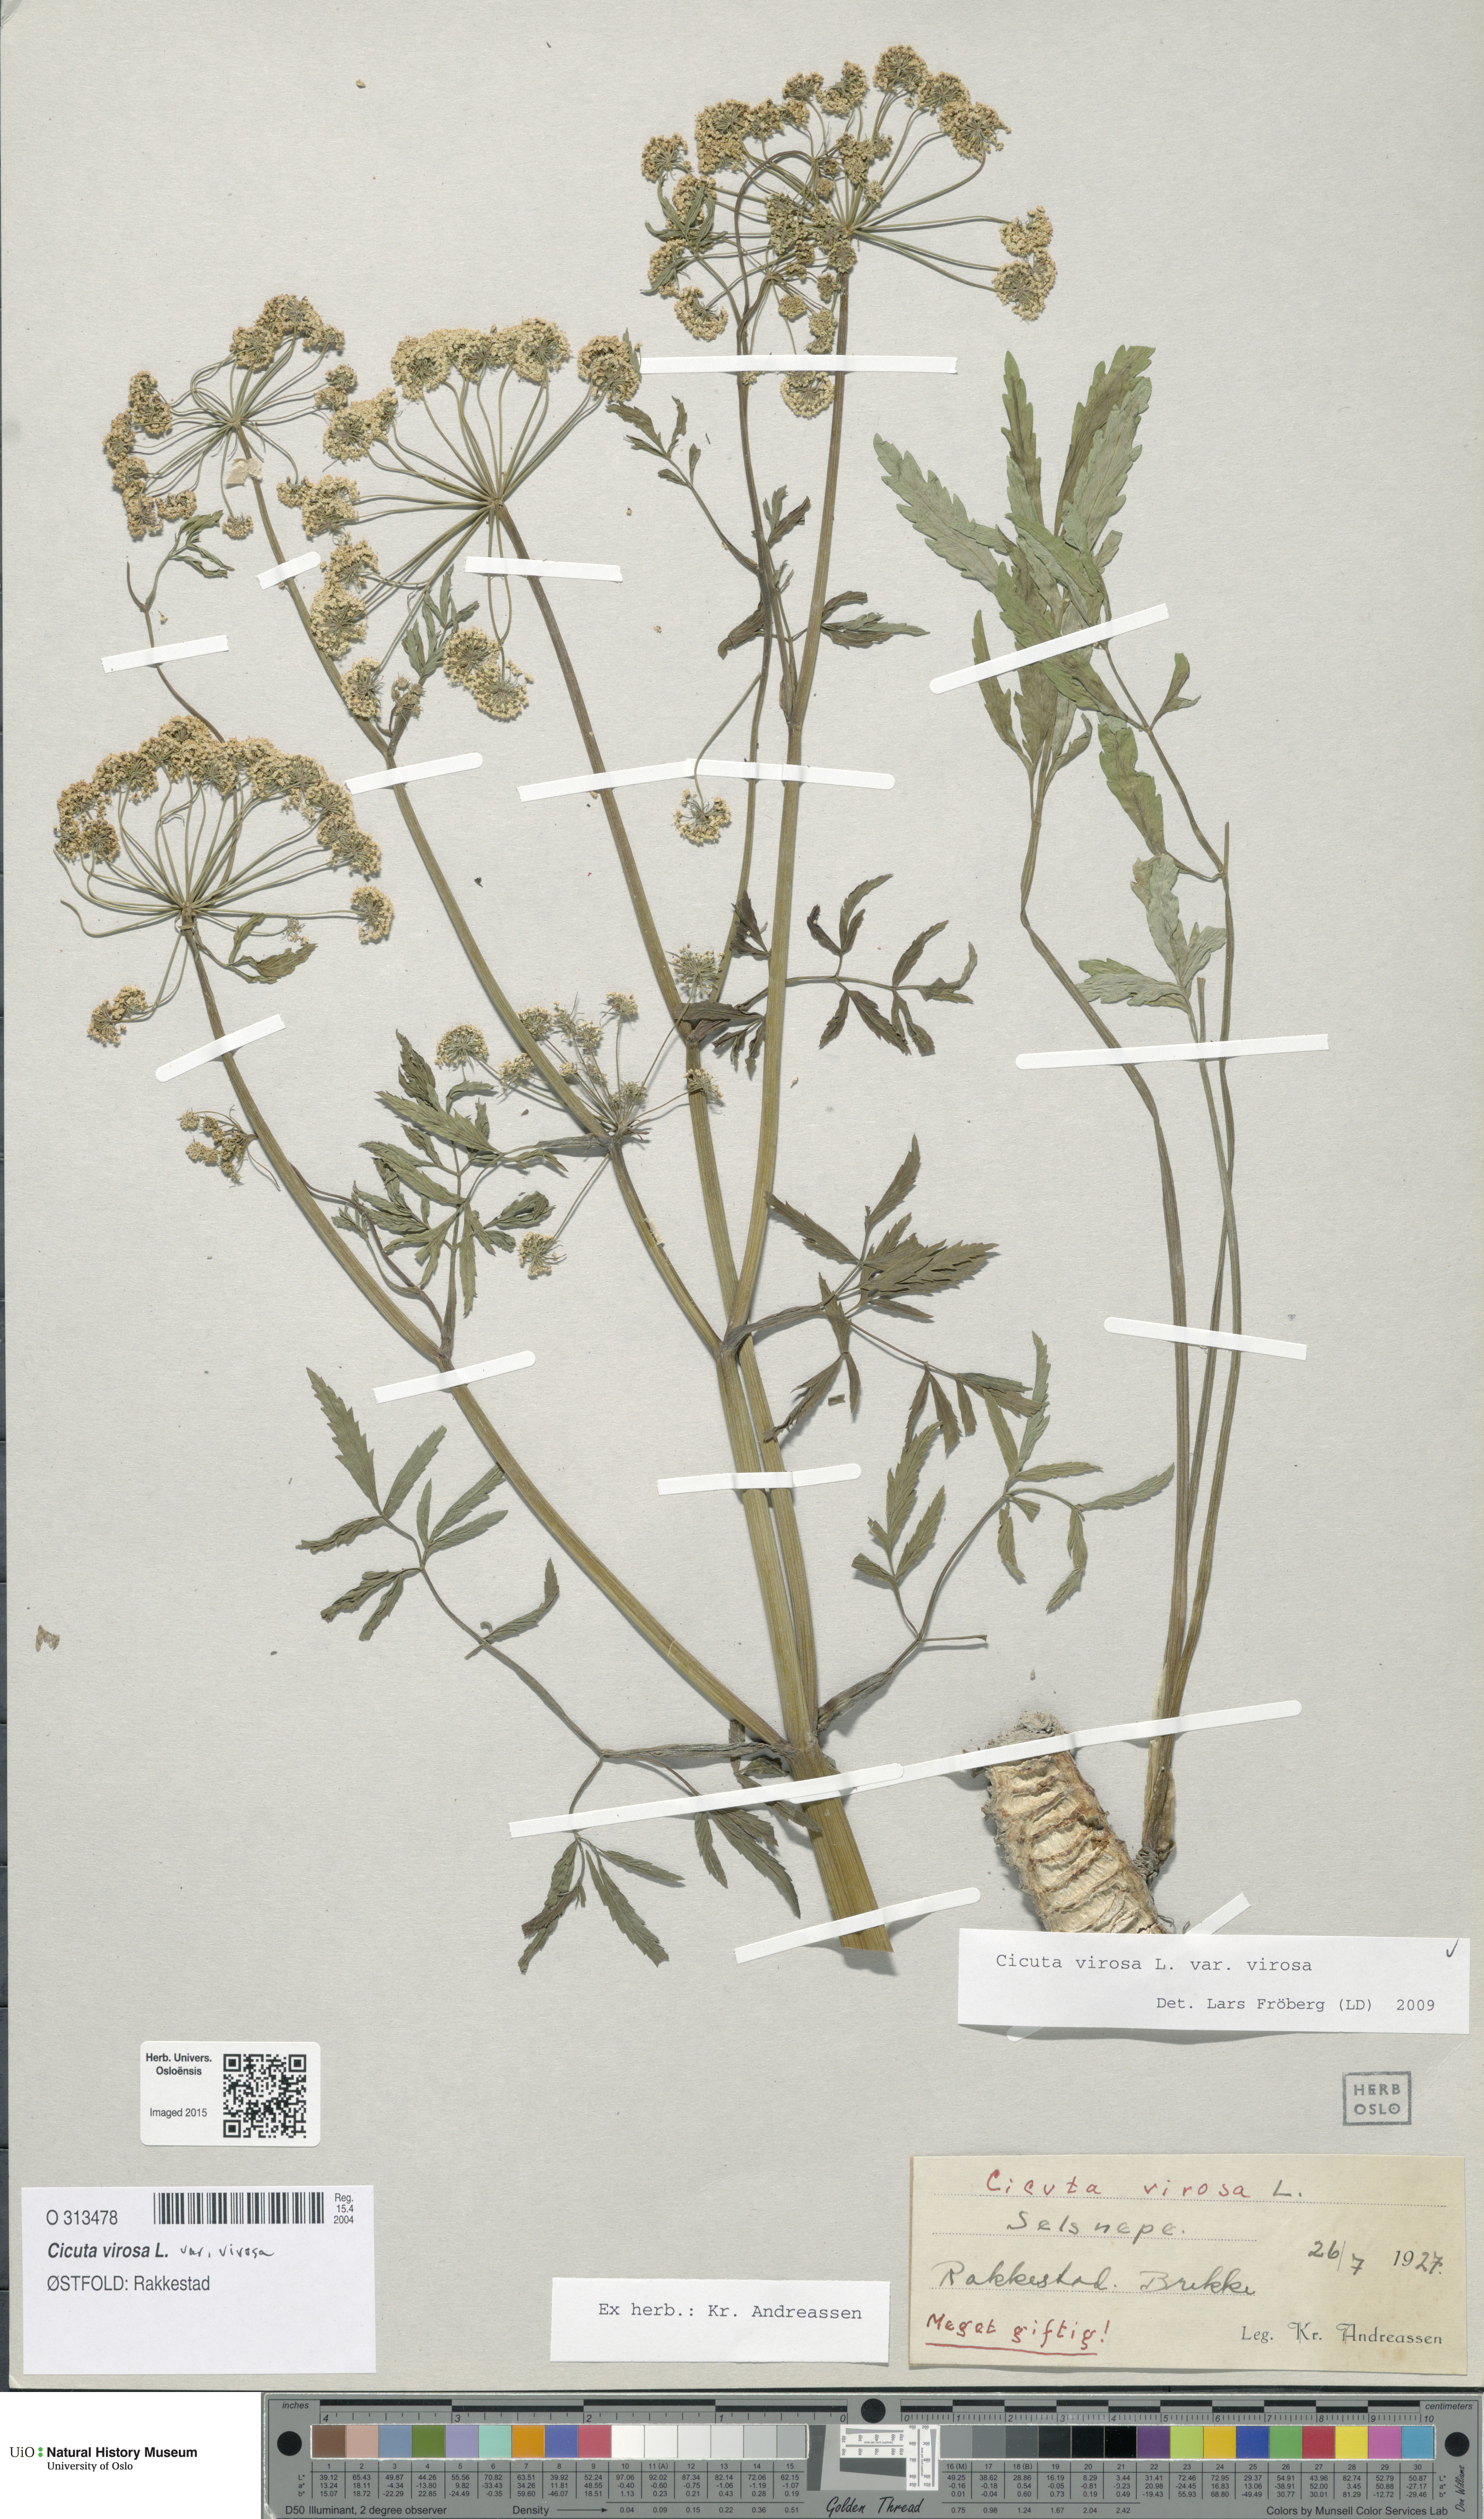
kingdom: Plantae
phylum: Tracheophyta
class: Magnoliopsida
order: Apiales
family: Apiaceae
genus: Cicuta
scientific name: Cicuta virosa
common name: Cowbane
